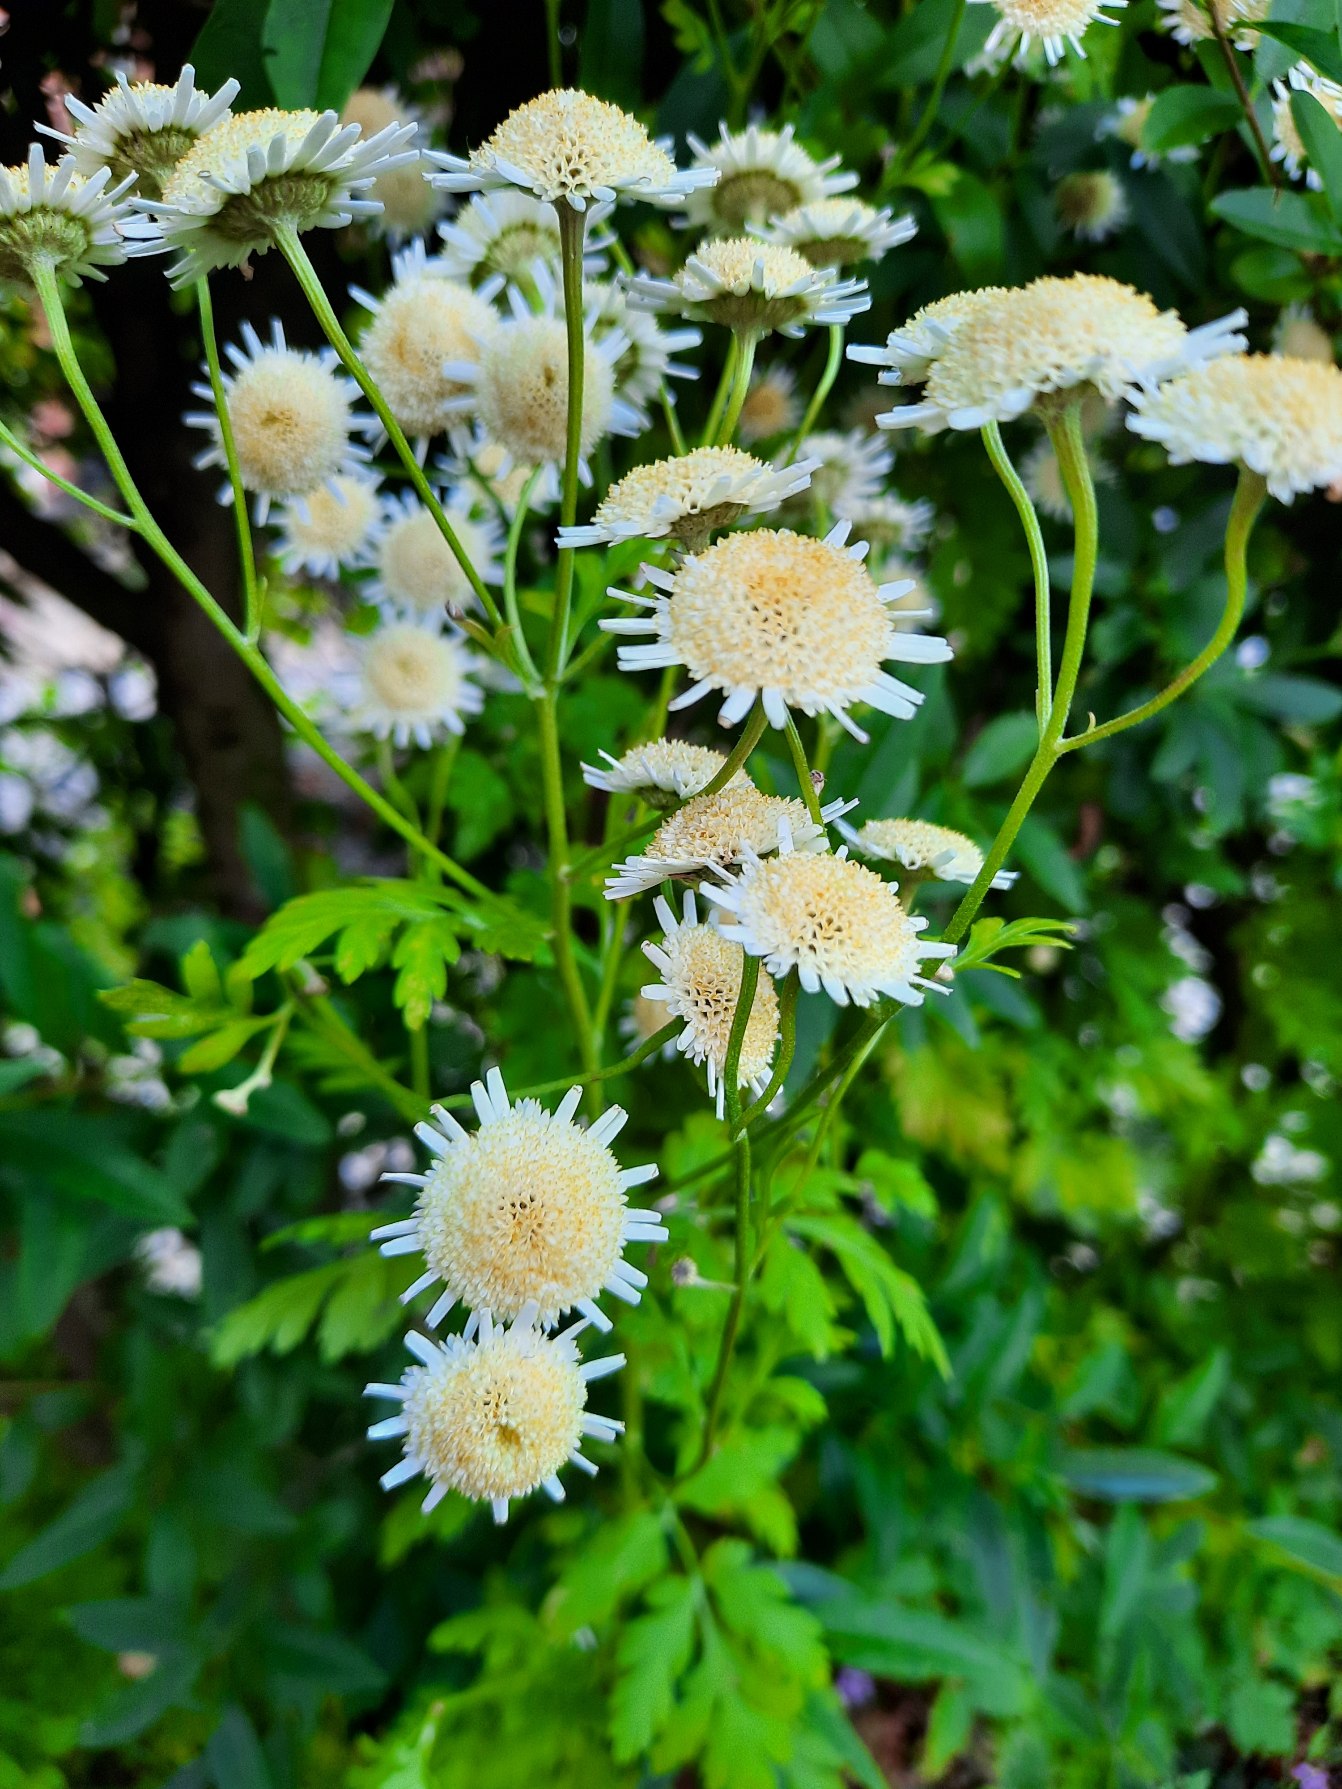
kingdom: Plantae
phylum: Tracheophyta
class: Magnoliopsida
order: Asterales
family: Asteraceae
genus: Tanacetum
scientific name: Tanacetum parthenium
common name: Matrem
